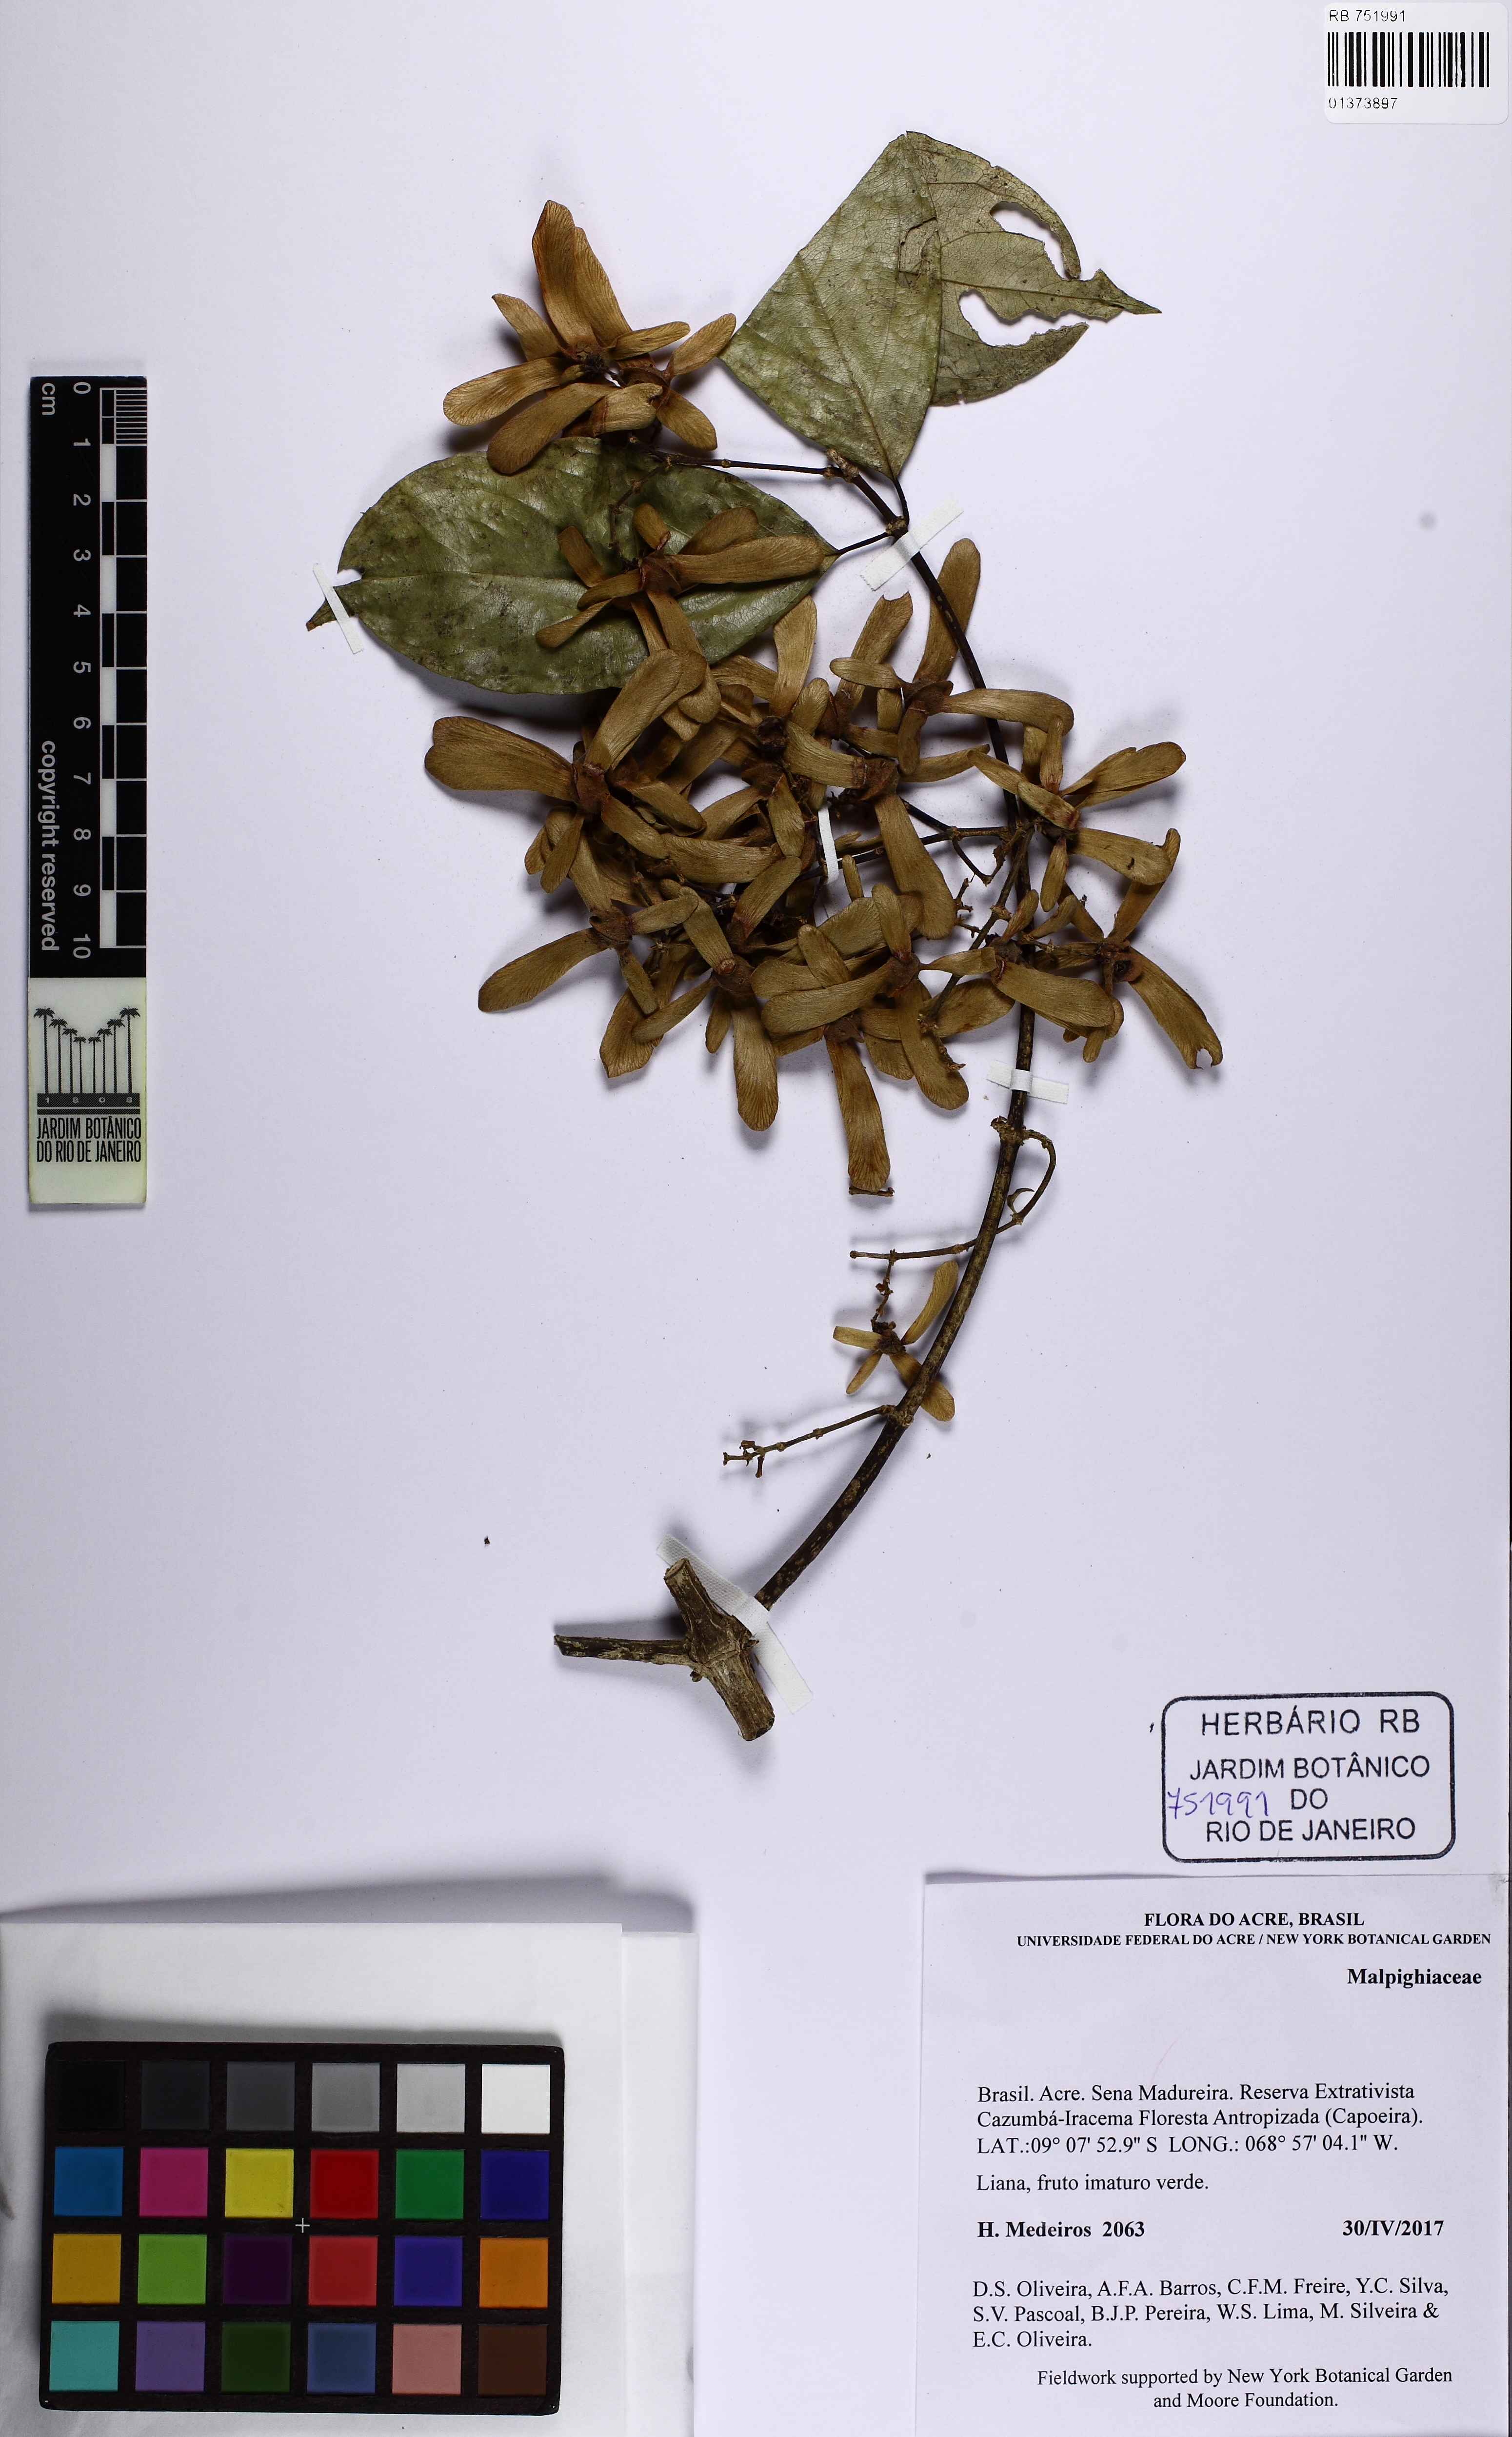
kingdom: Plantae
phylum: Tracheophyta
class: Magnoliopsida
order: Malpighiales
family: Malpighiaceae
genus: Tetrapterys
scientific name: Tetrapterys
